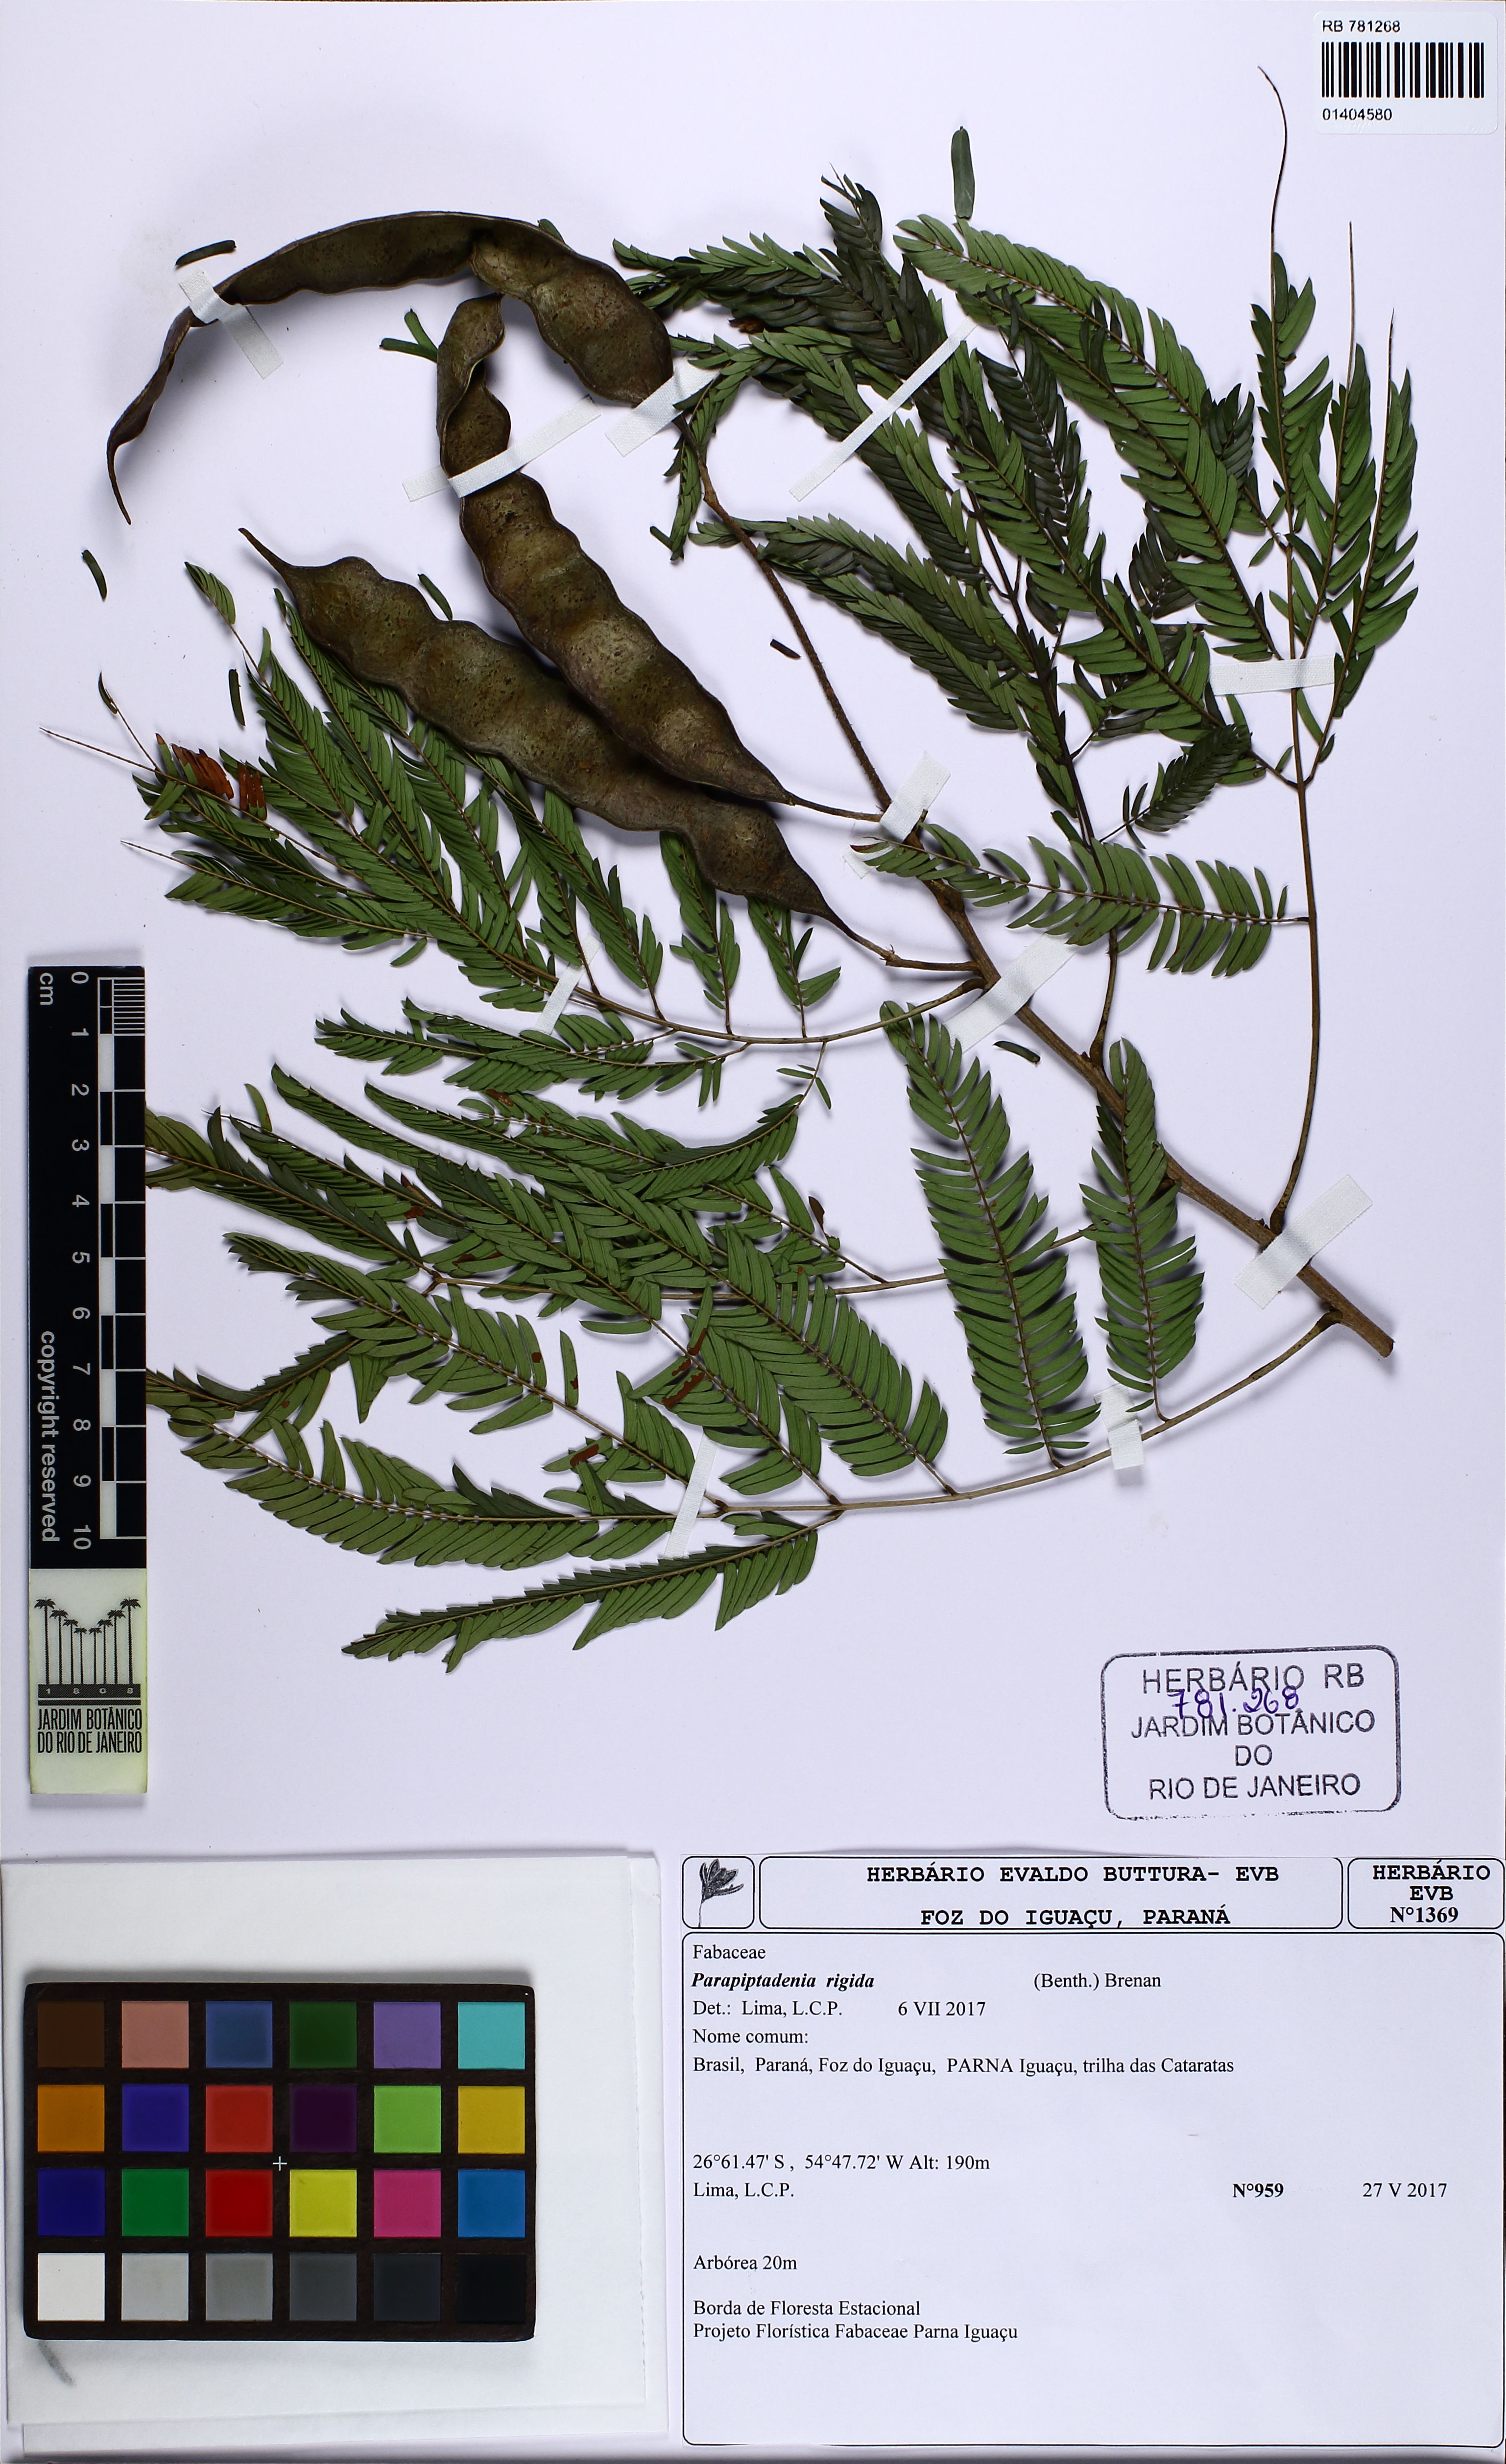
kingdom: Plantae
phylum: Tracheophyta
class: Magnoliopsida
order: Fabales
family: Fabaceae
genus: Parapiptadenia
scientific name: Parapiptadenia rigida
